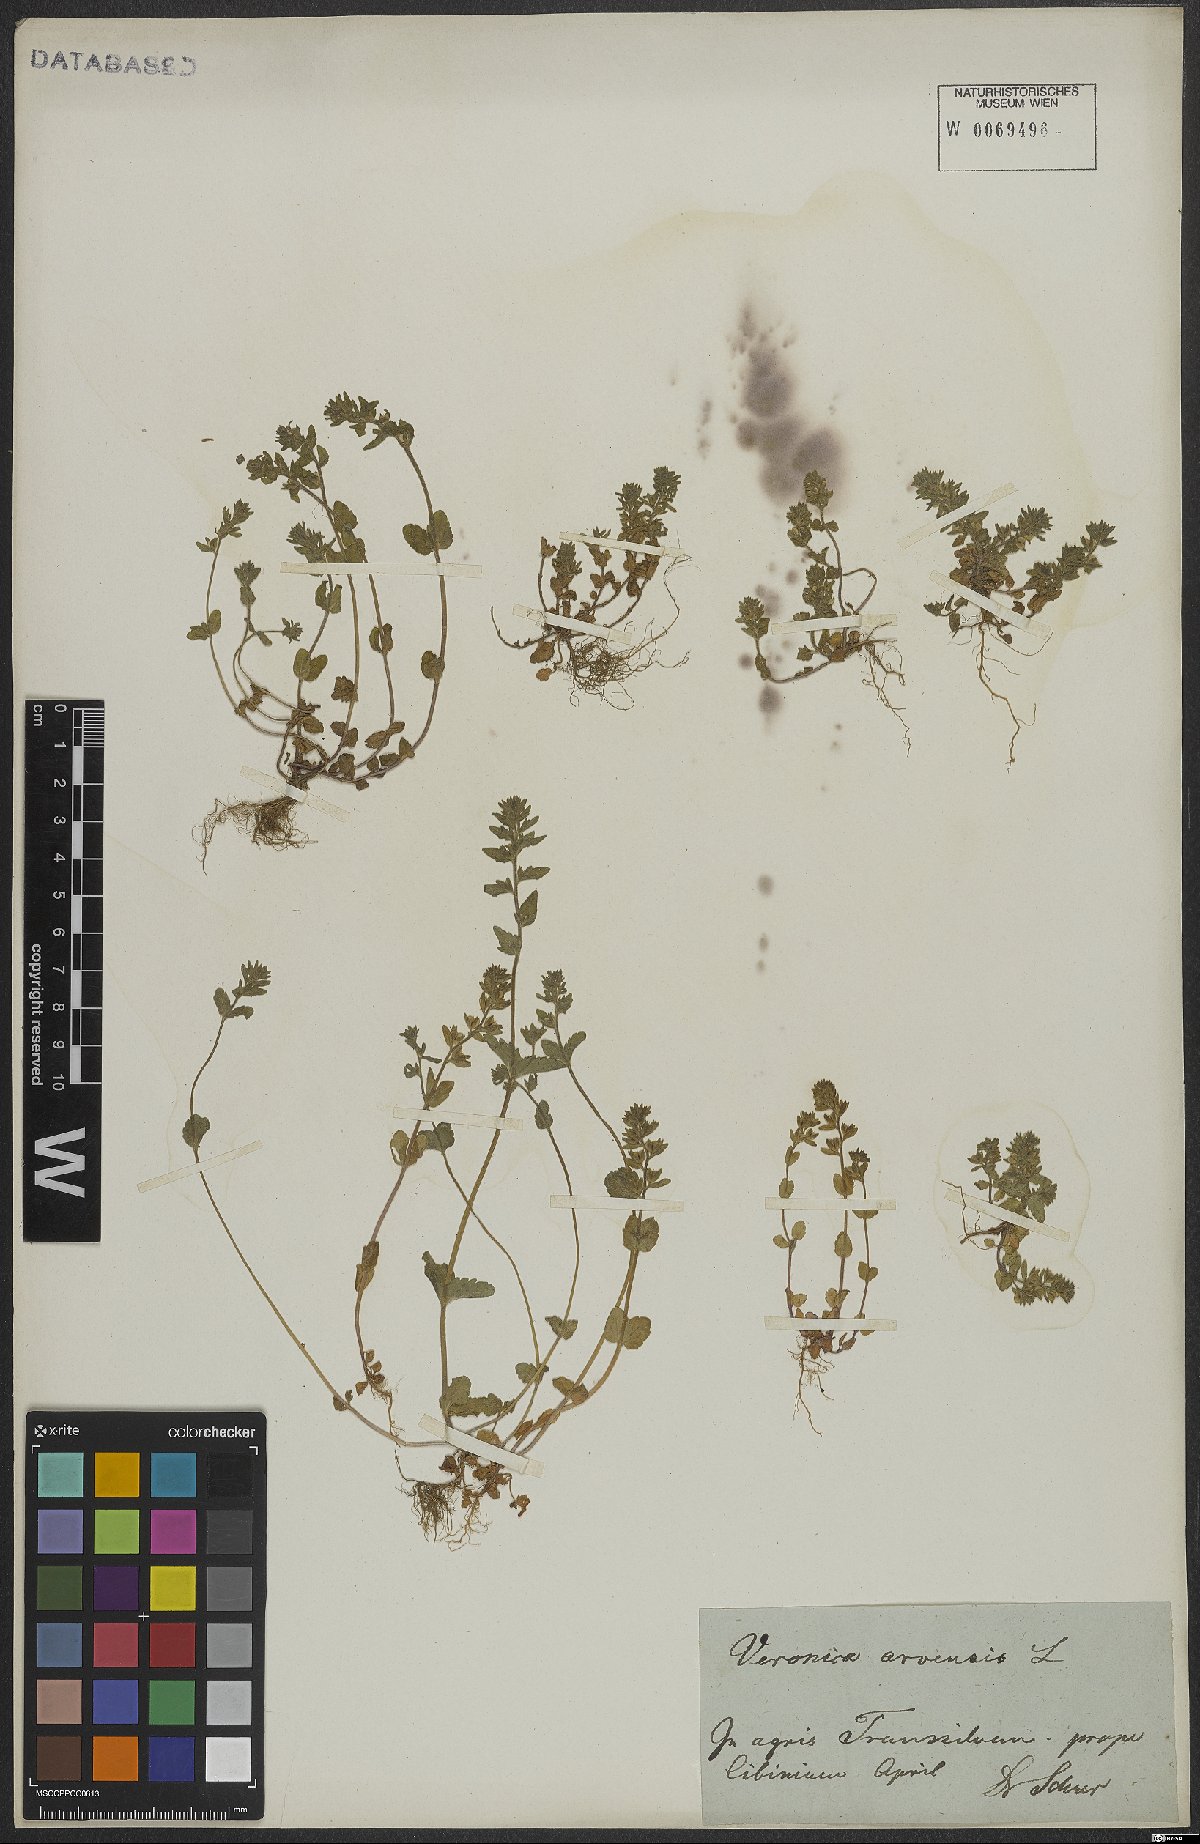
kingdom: Plantae
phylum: Tracheophyta
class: Magnoliopsida
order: Lamiales
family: Plantaginaceae
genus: Veronica
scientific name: Veronica arvensis
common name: Corn speedwell
